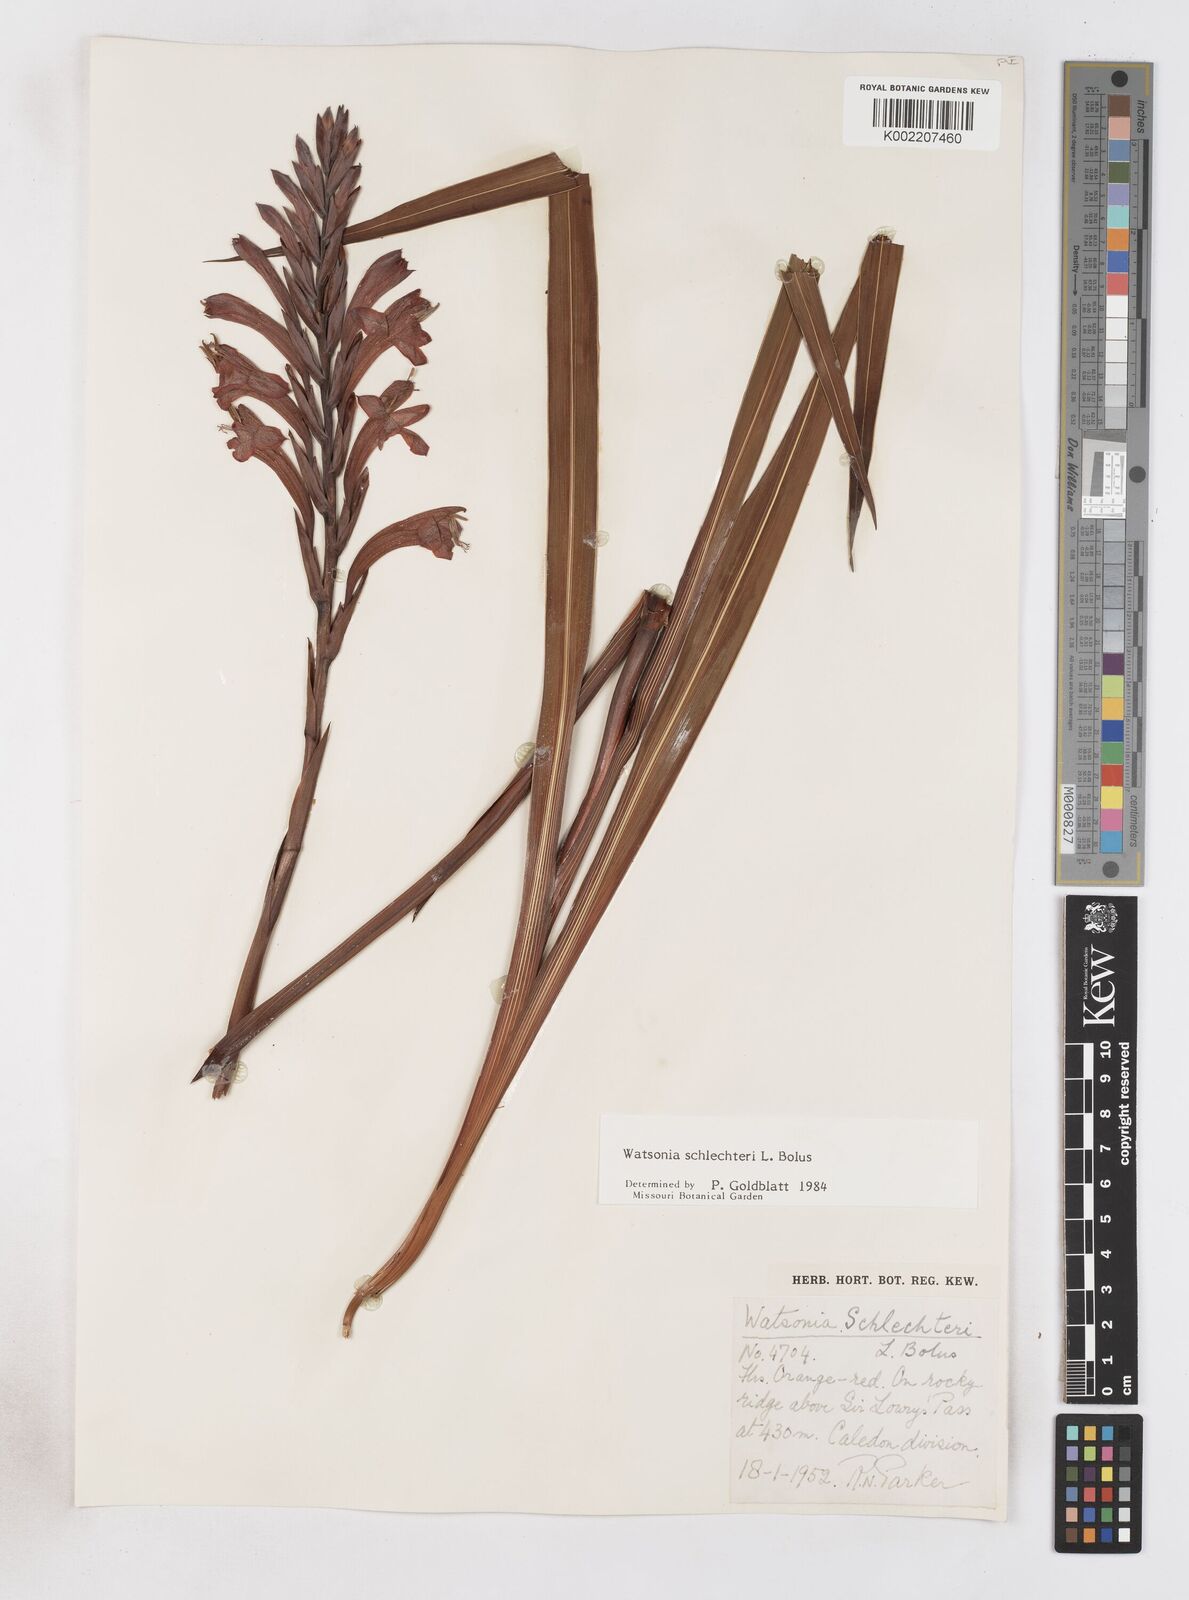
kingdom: Plantae
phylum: Tracheophyta
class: Liliopsida
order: Asparagales
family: Iridaceae
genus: Watsonia
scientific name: Watsonia schlechteri
